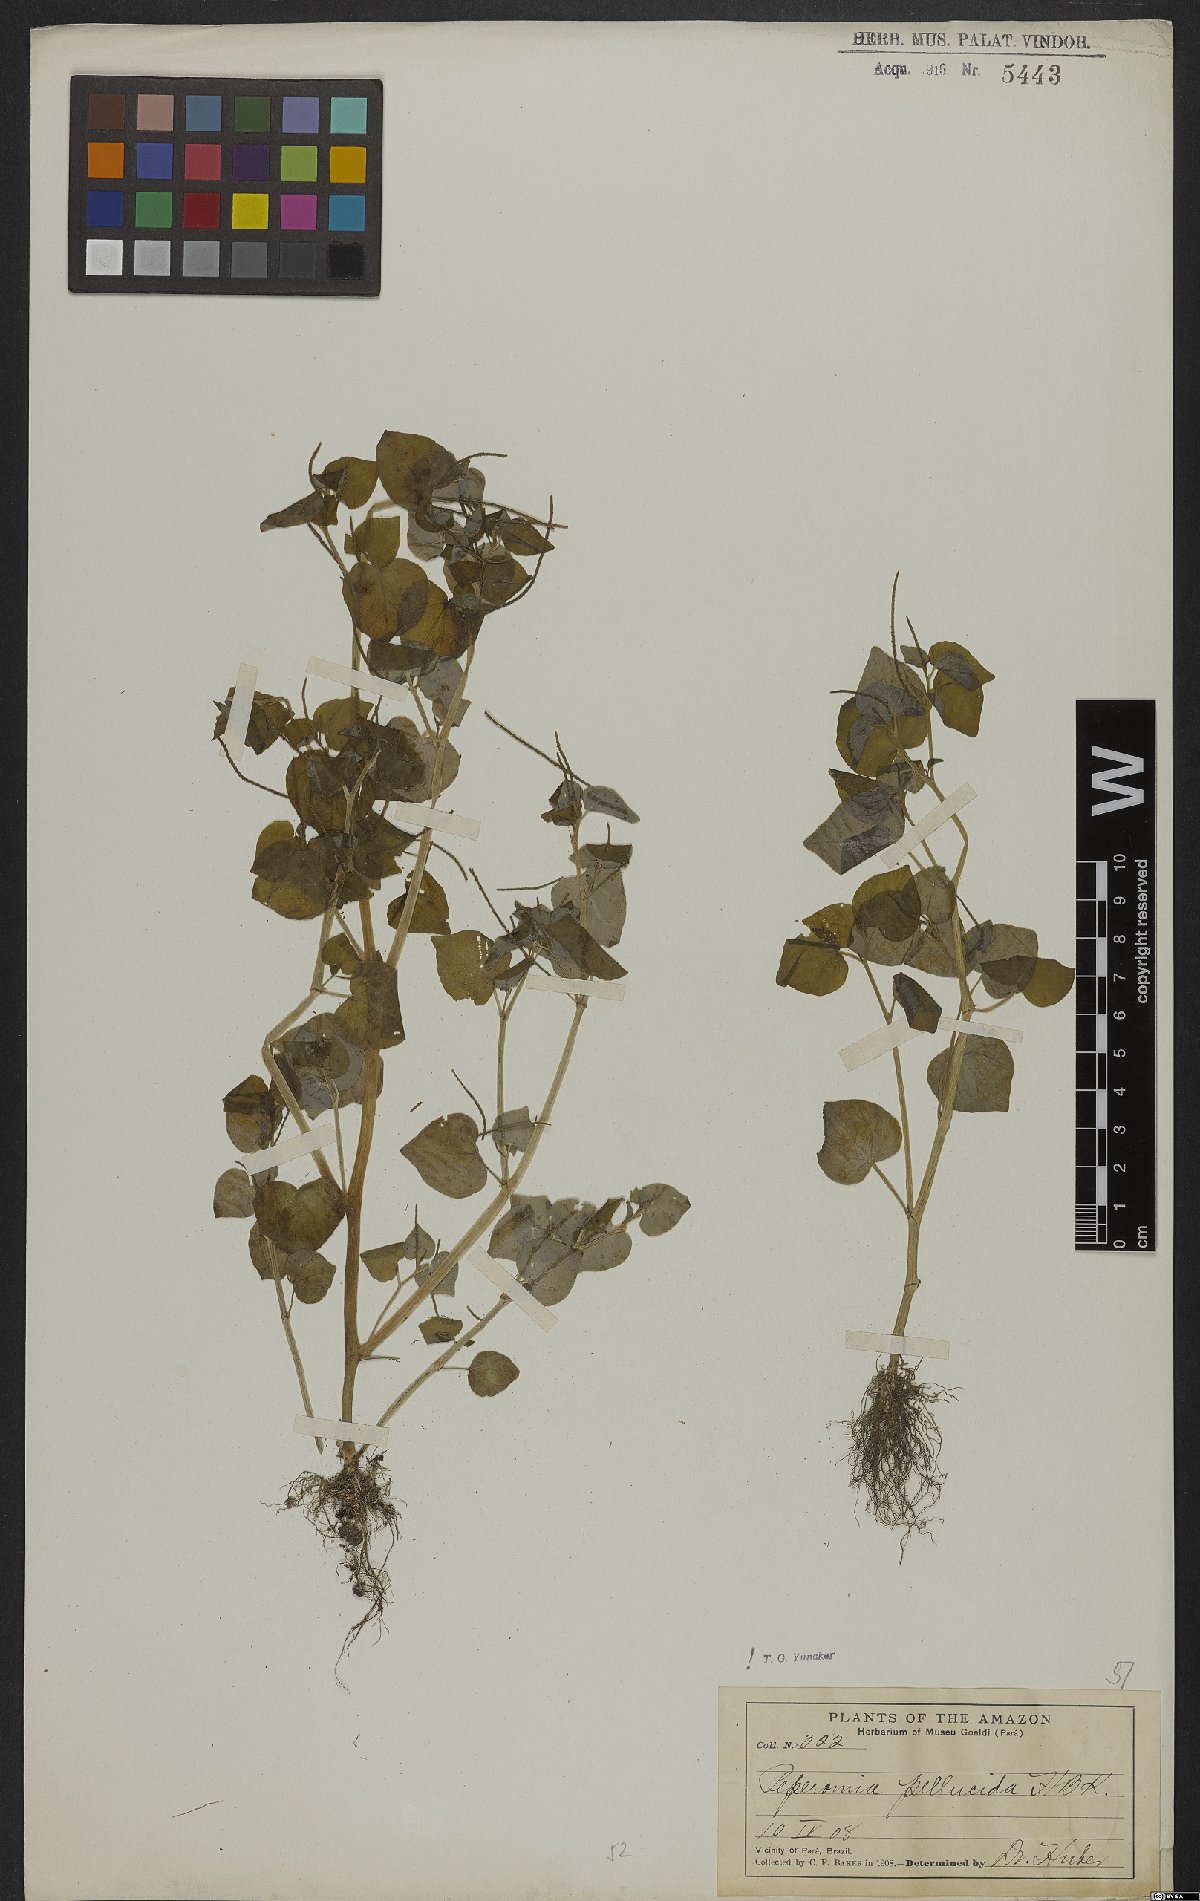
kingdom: Plantae
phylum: Tracheophyta
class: Magnoliopsida
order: Piperales
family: Piperaceae
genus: Peperomia
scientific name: Peperomia pellucida
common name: Man to man
